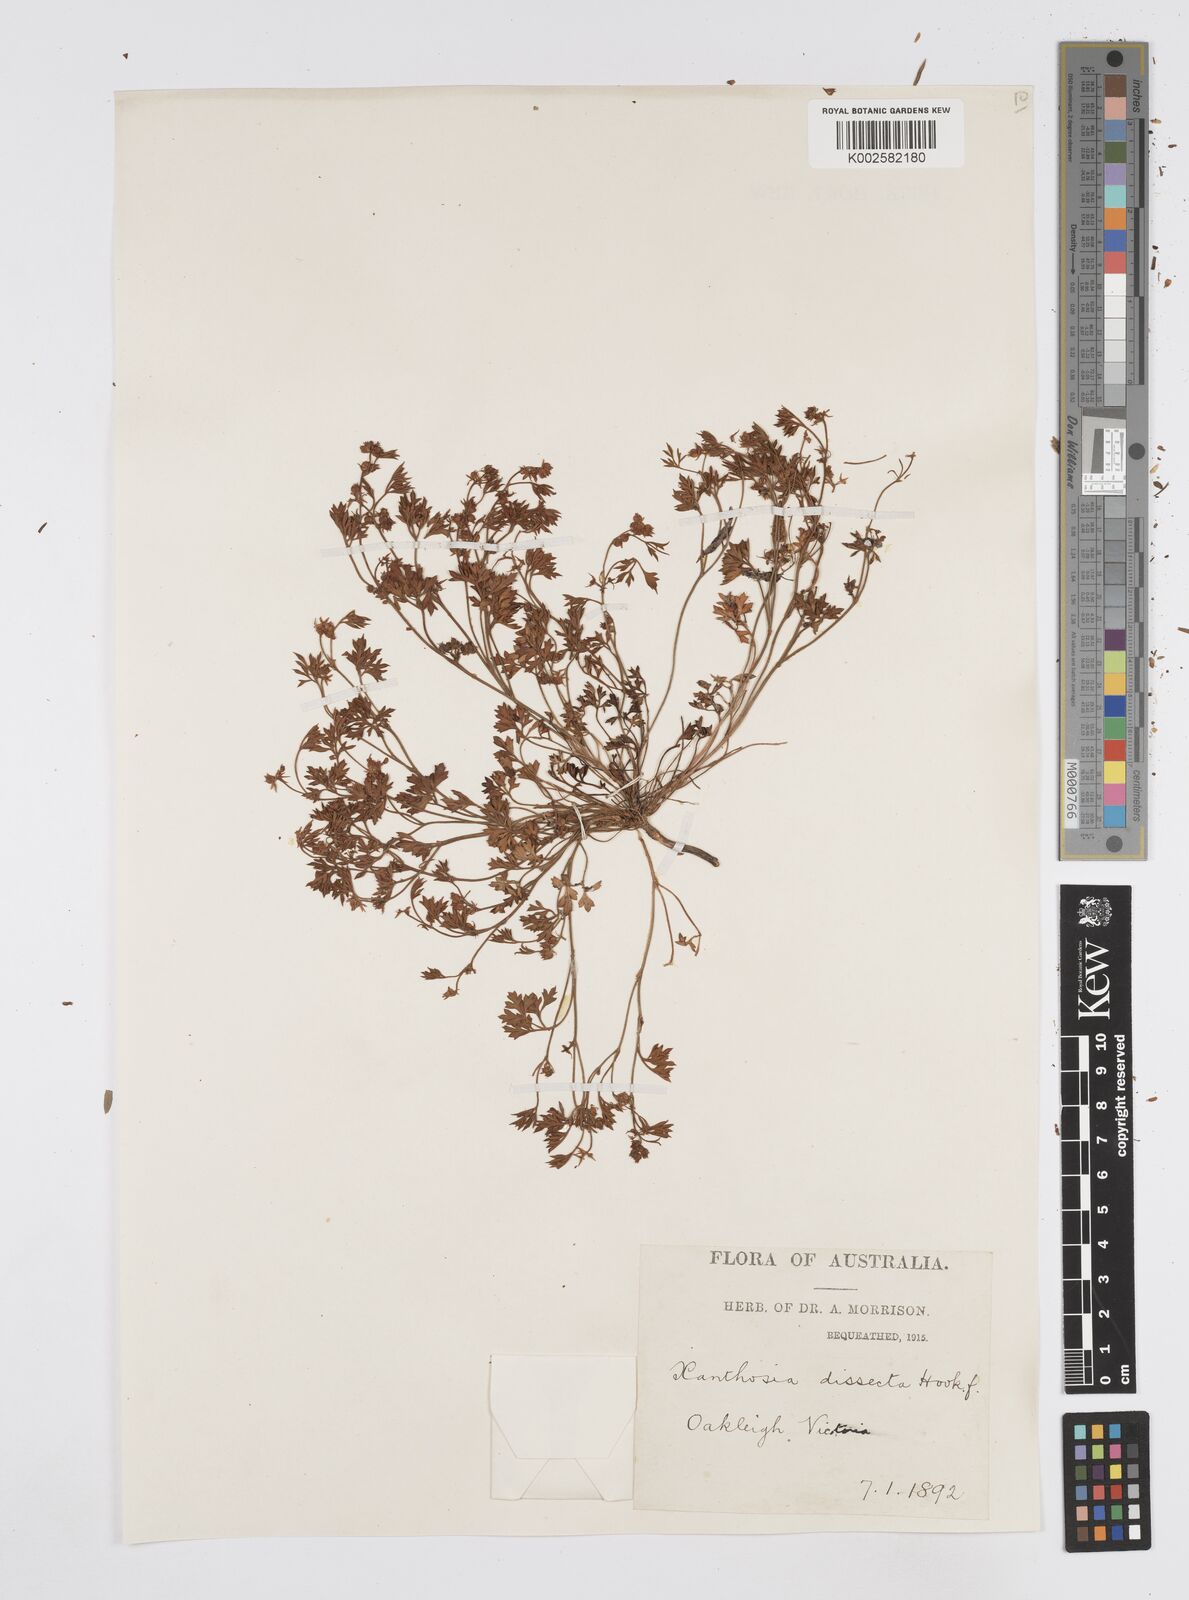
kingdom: Plantae
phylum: Tracheophyta
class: Magnoliopsida
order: Apiales
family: Apiaceae
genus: Xanthosia
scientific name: Xanthosia dissecta
